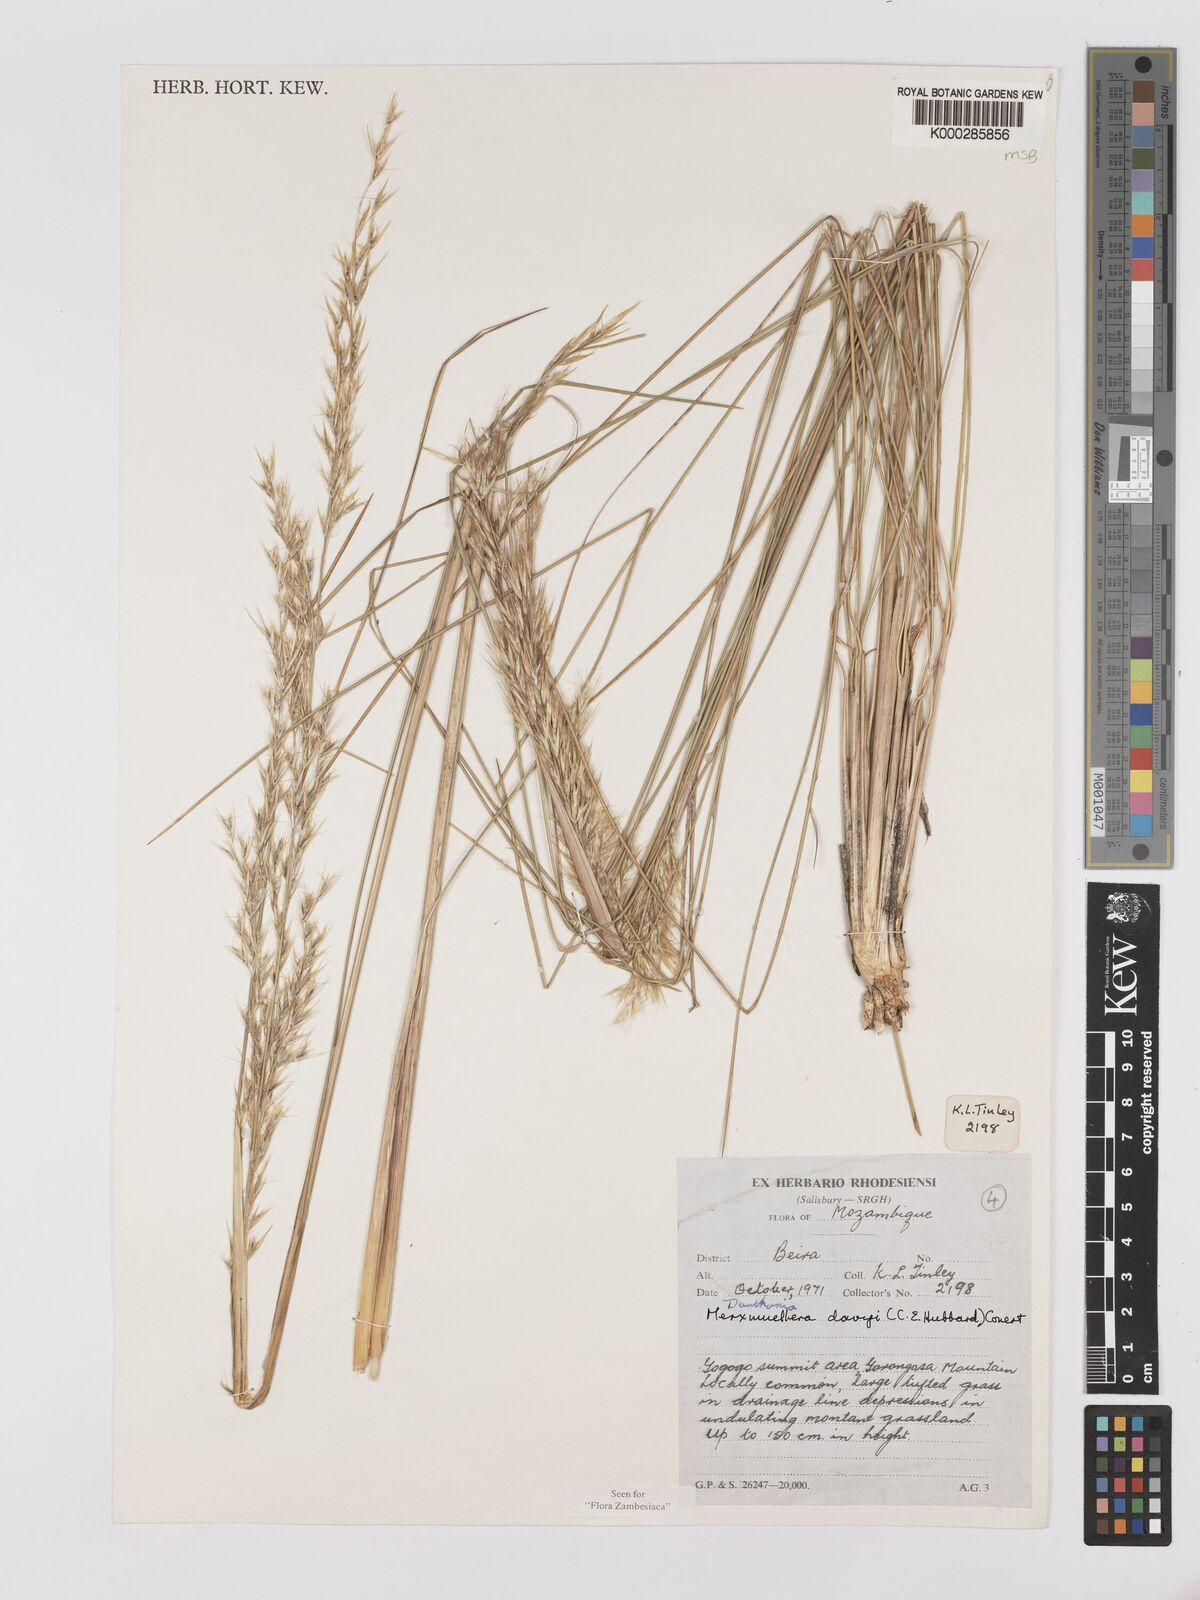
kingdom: Plantae
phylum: Tracheophyta
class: Liliopsida
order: Poales
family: Poaceae
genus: Merxmuellera
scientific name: Merxmuellera davyi
